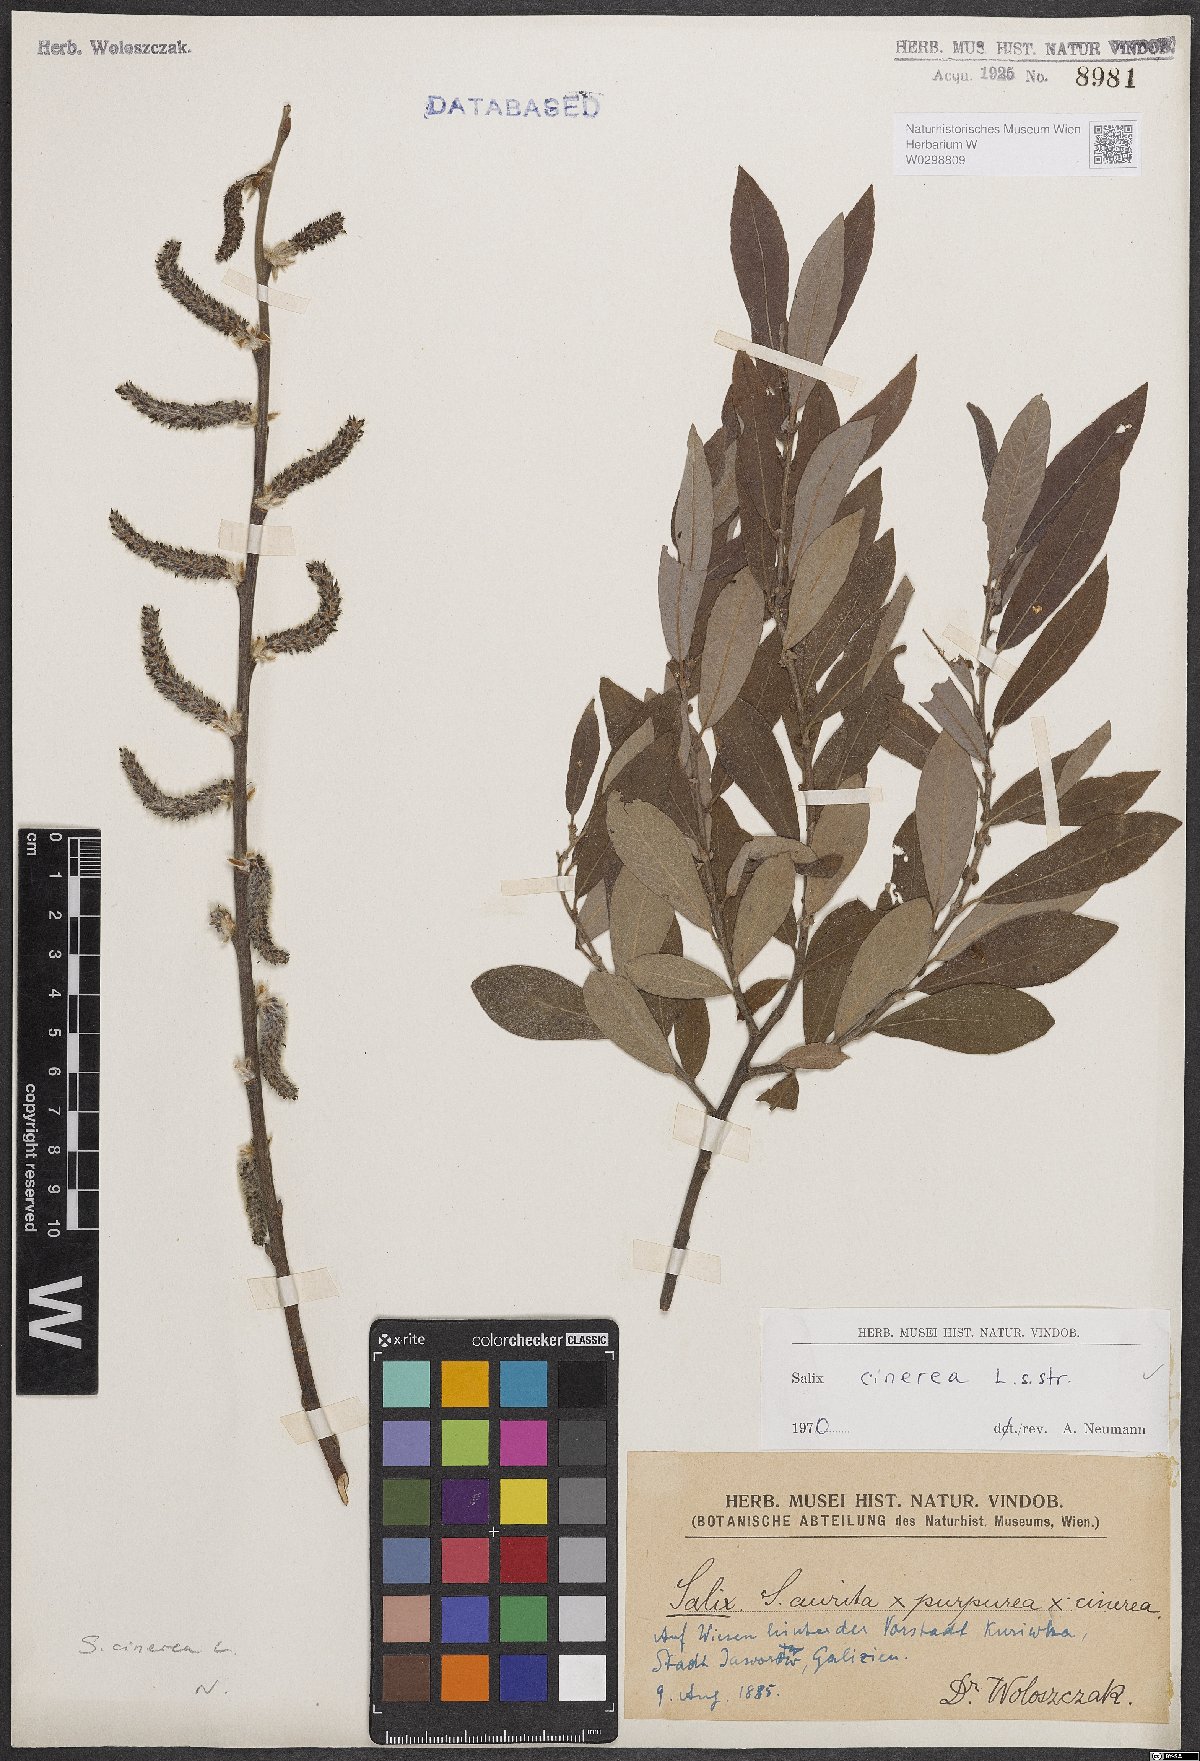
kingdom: Plantae
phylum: Tracheophyta
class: Magnoliopsida
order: Malpighiales
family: Salicaceae
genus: Salix
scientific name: Salix cinerea
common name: Common sallow
